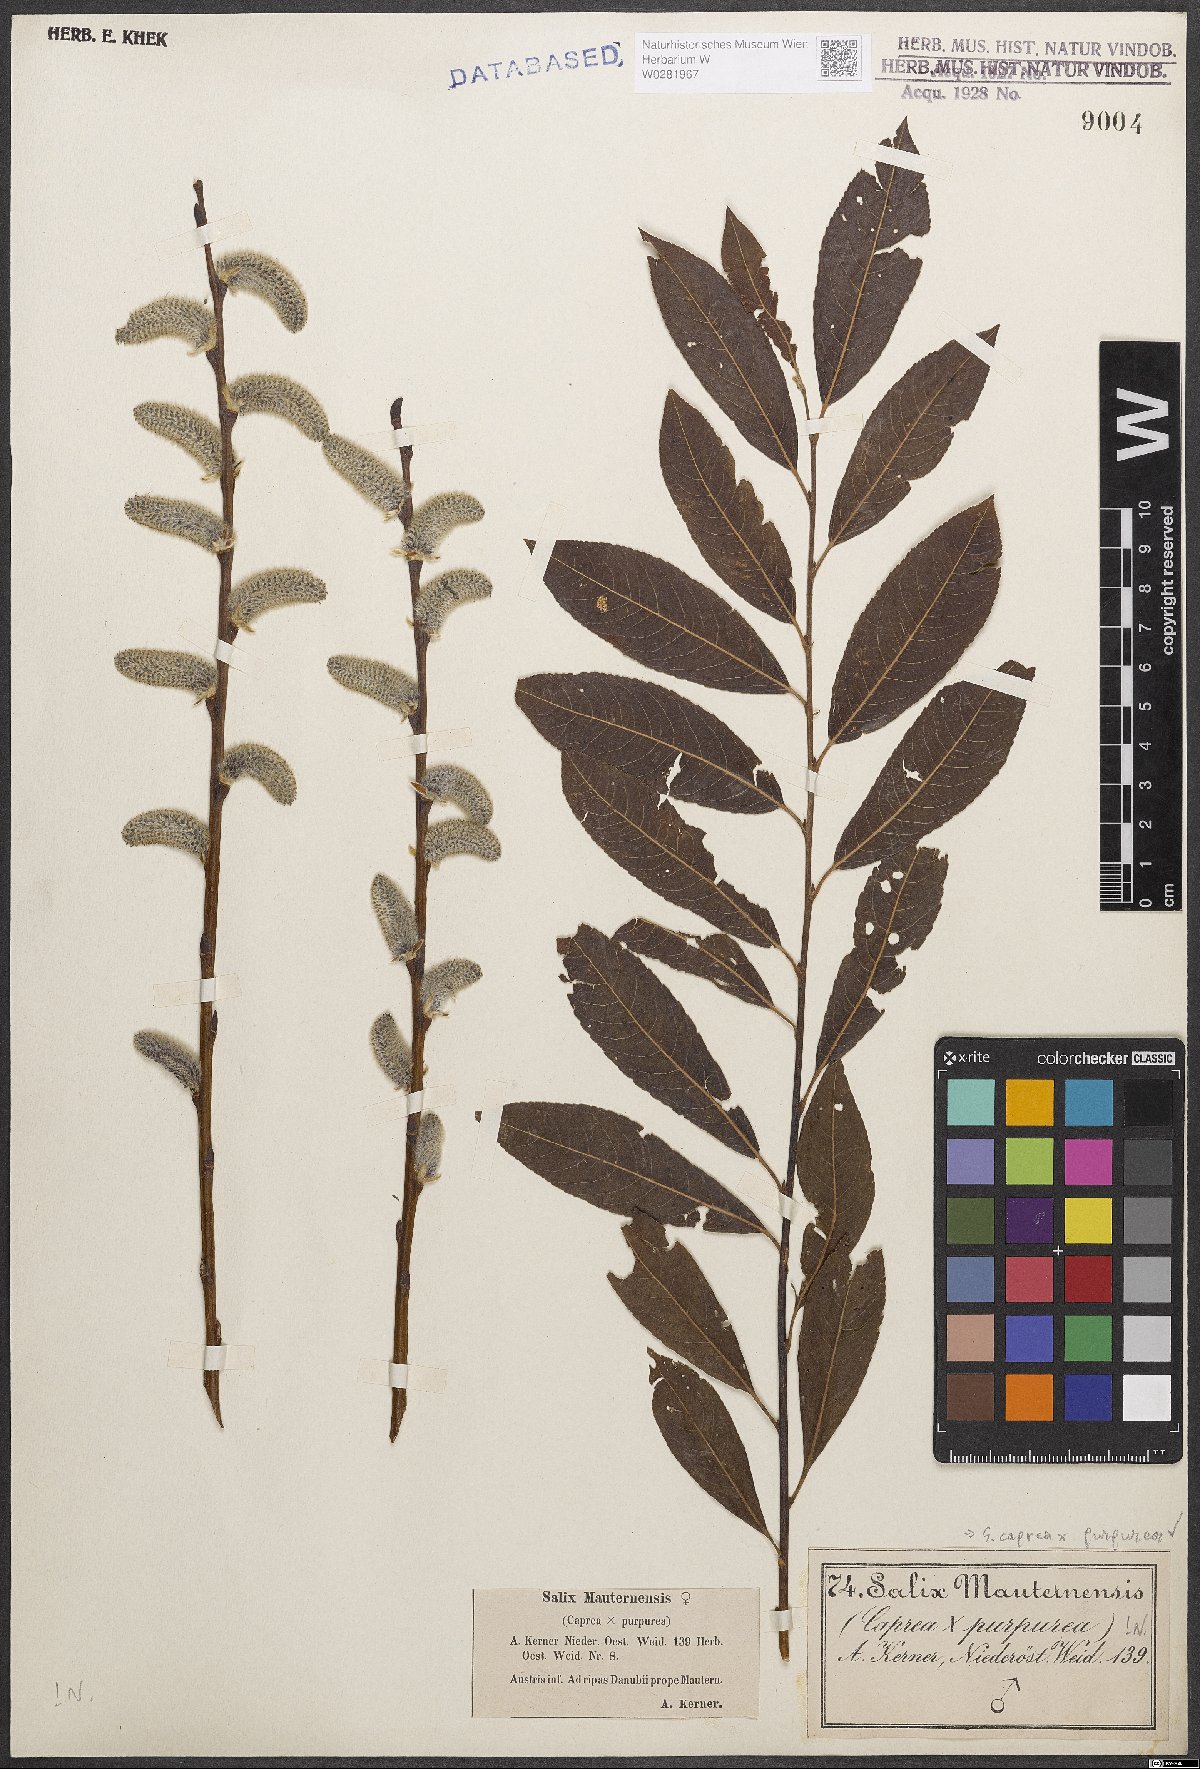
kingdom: Plantae
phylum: Tracheophyta
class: Magnoliopsida
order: Malpighiales
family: Salicaceae
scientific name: Salicaceae
